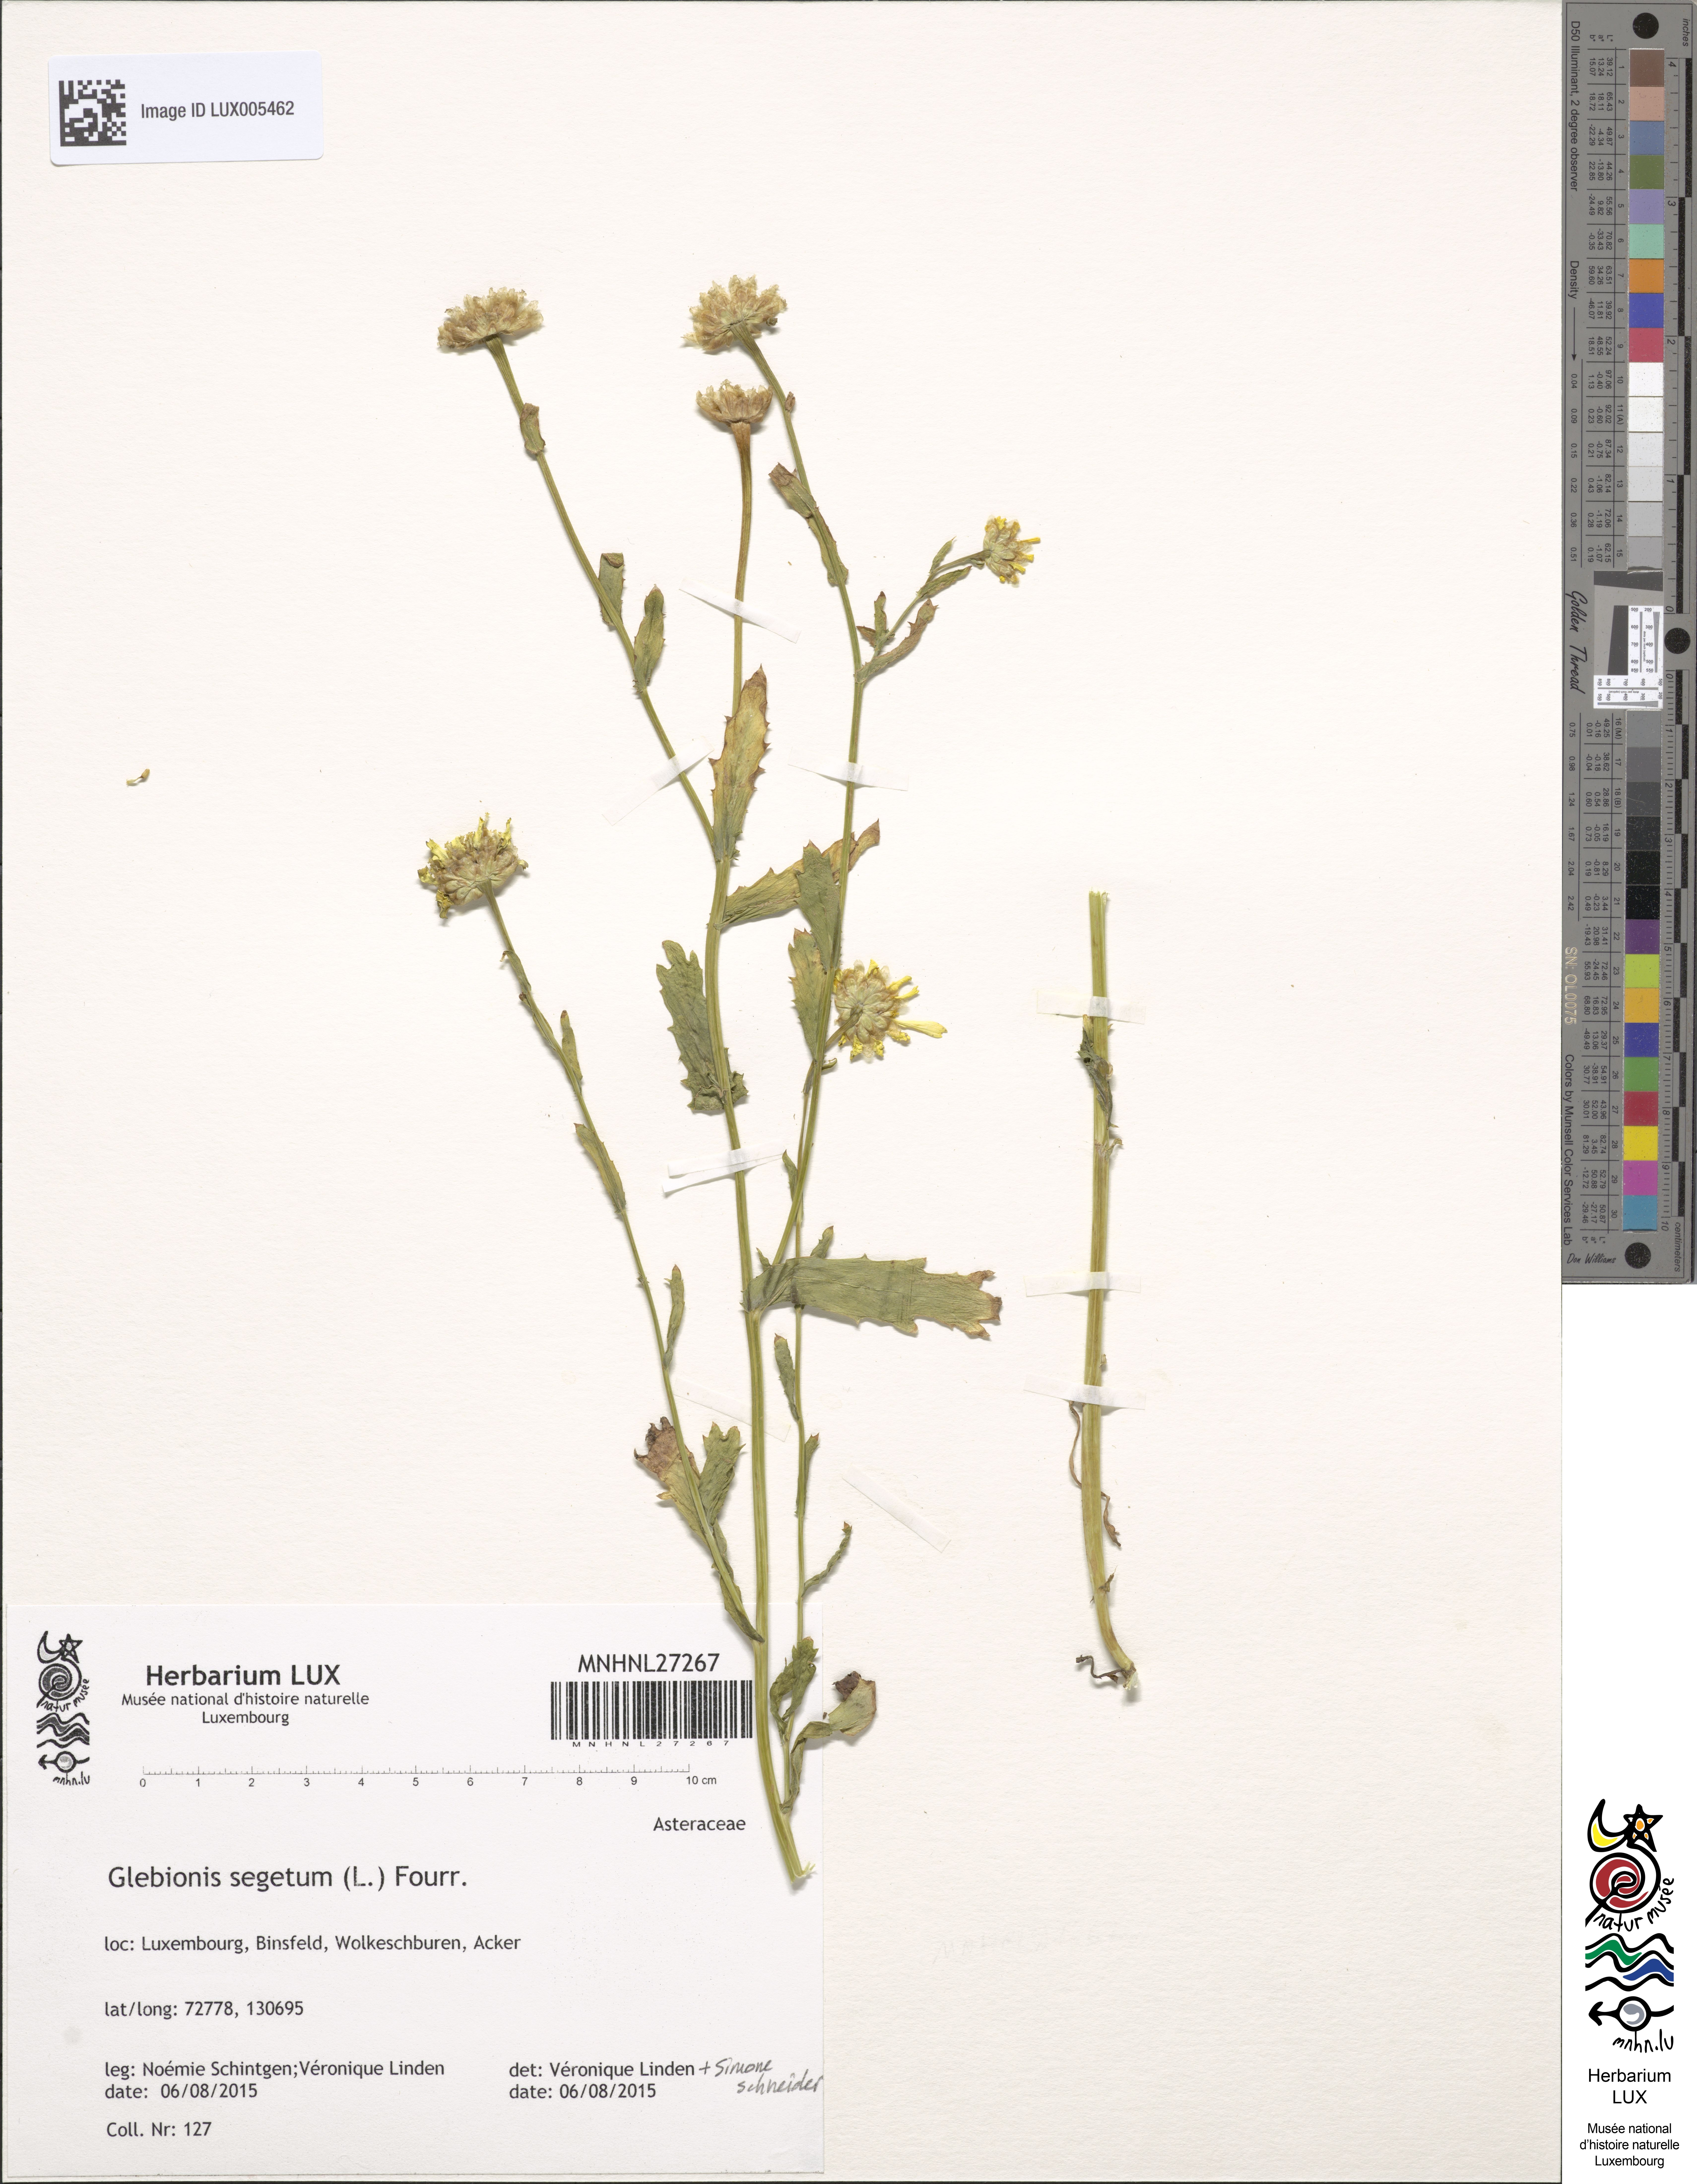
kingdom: Plantae
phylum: Tracheophyta
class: Magnoliopsida
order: Asterales
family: Asteraceae
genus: Glebionis
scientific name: Glebionis segetum
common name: Corndaisy
